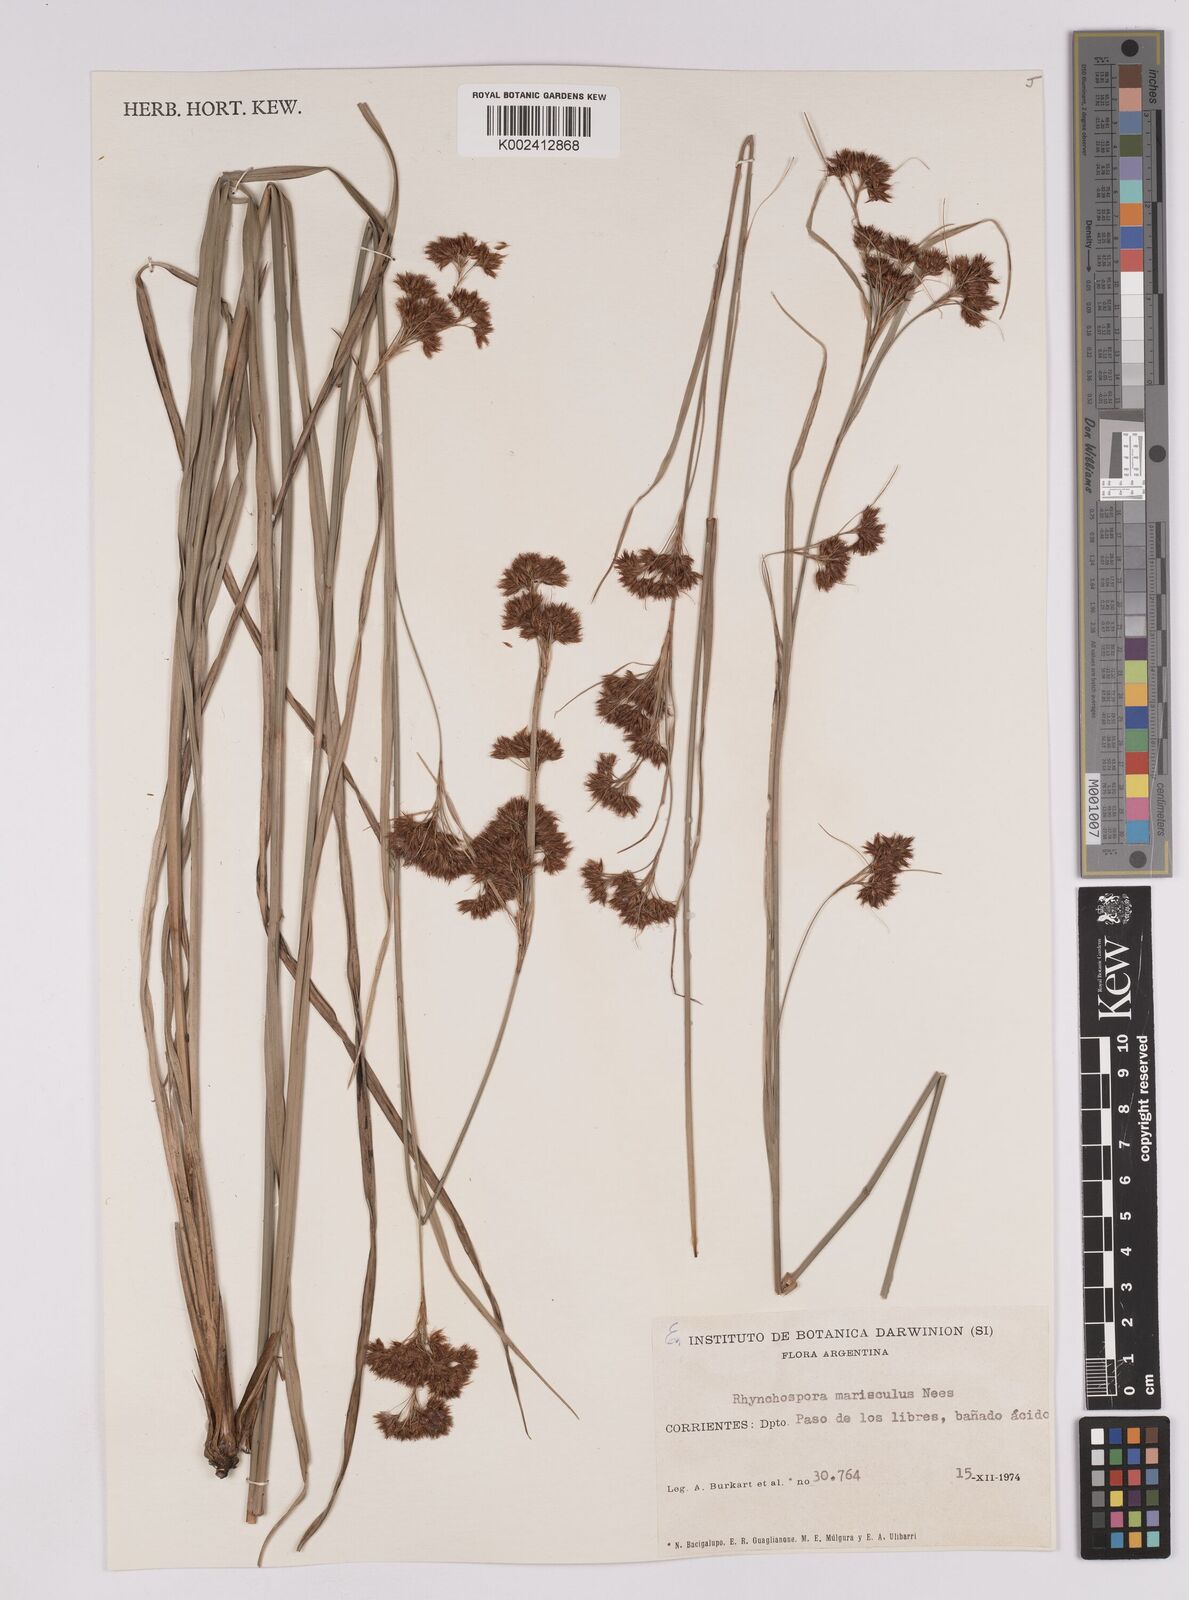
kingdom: Plantae
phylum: Tracheophyta
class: Liliopsida
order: Poales
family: Cyperaceae
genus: Rhynchospora
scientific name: Rhynchospora marisculus
